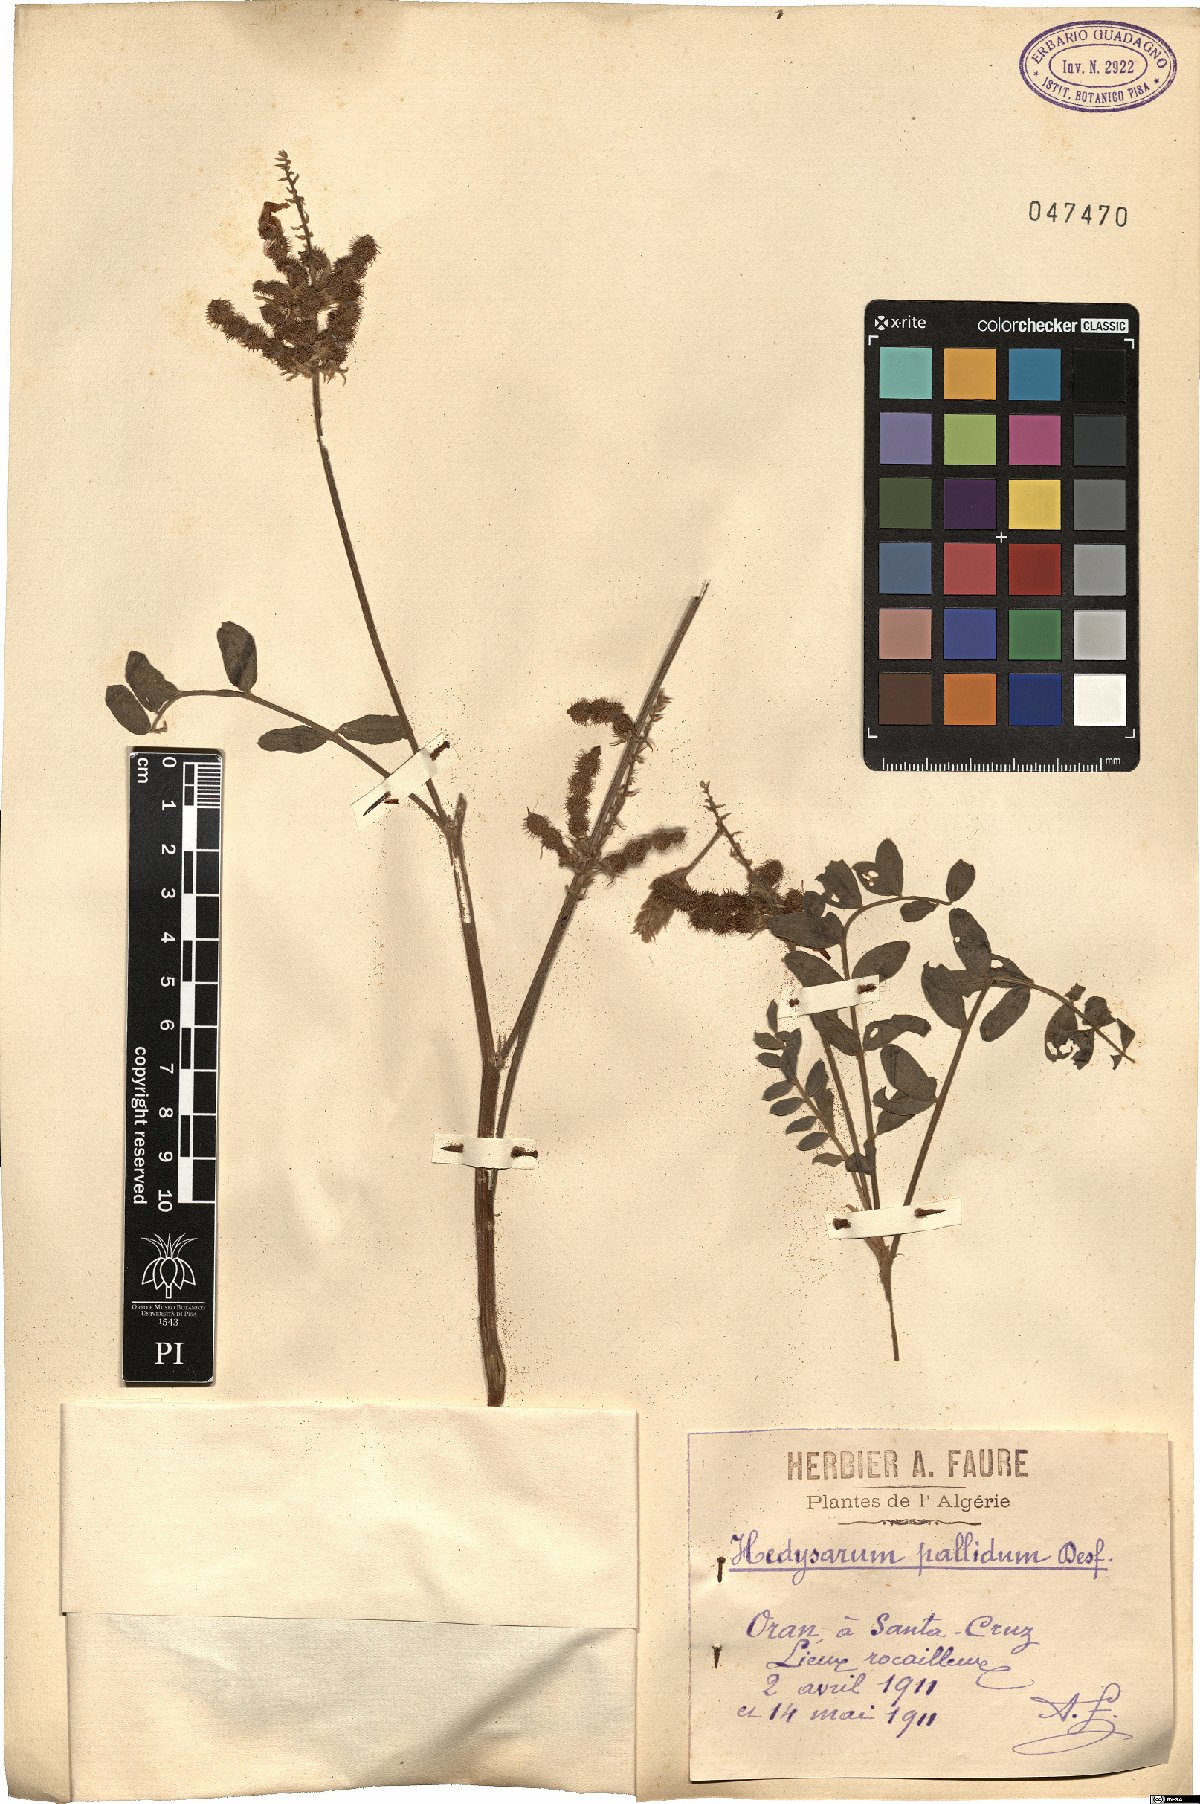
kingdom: Plantae
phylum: Tracheophyta
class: Magnoliopsida
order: Fabales
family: Fabaceae
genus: Sulla
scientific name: Sulla pallida
